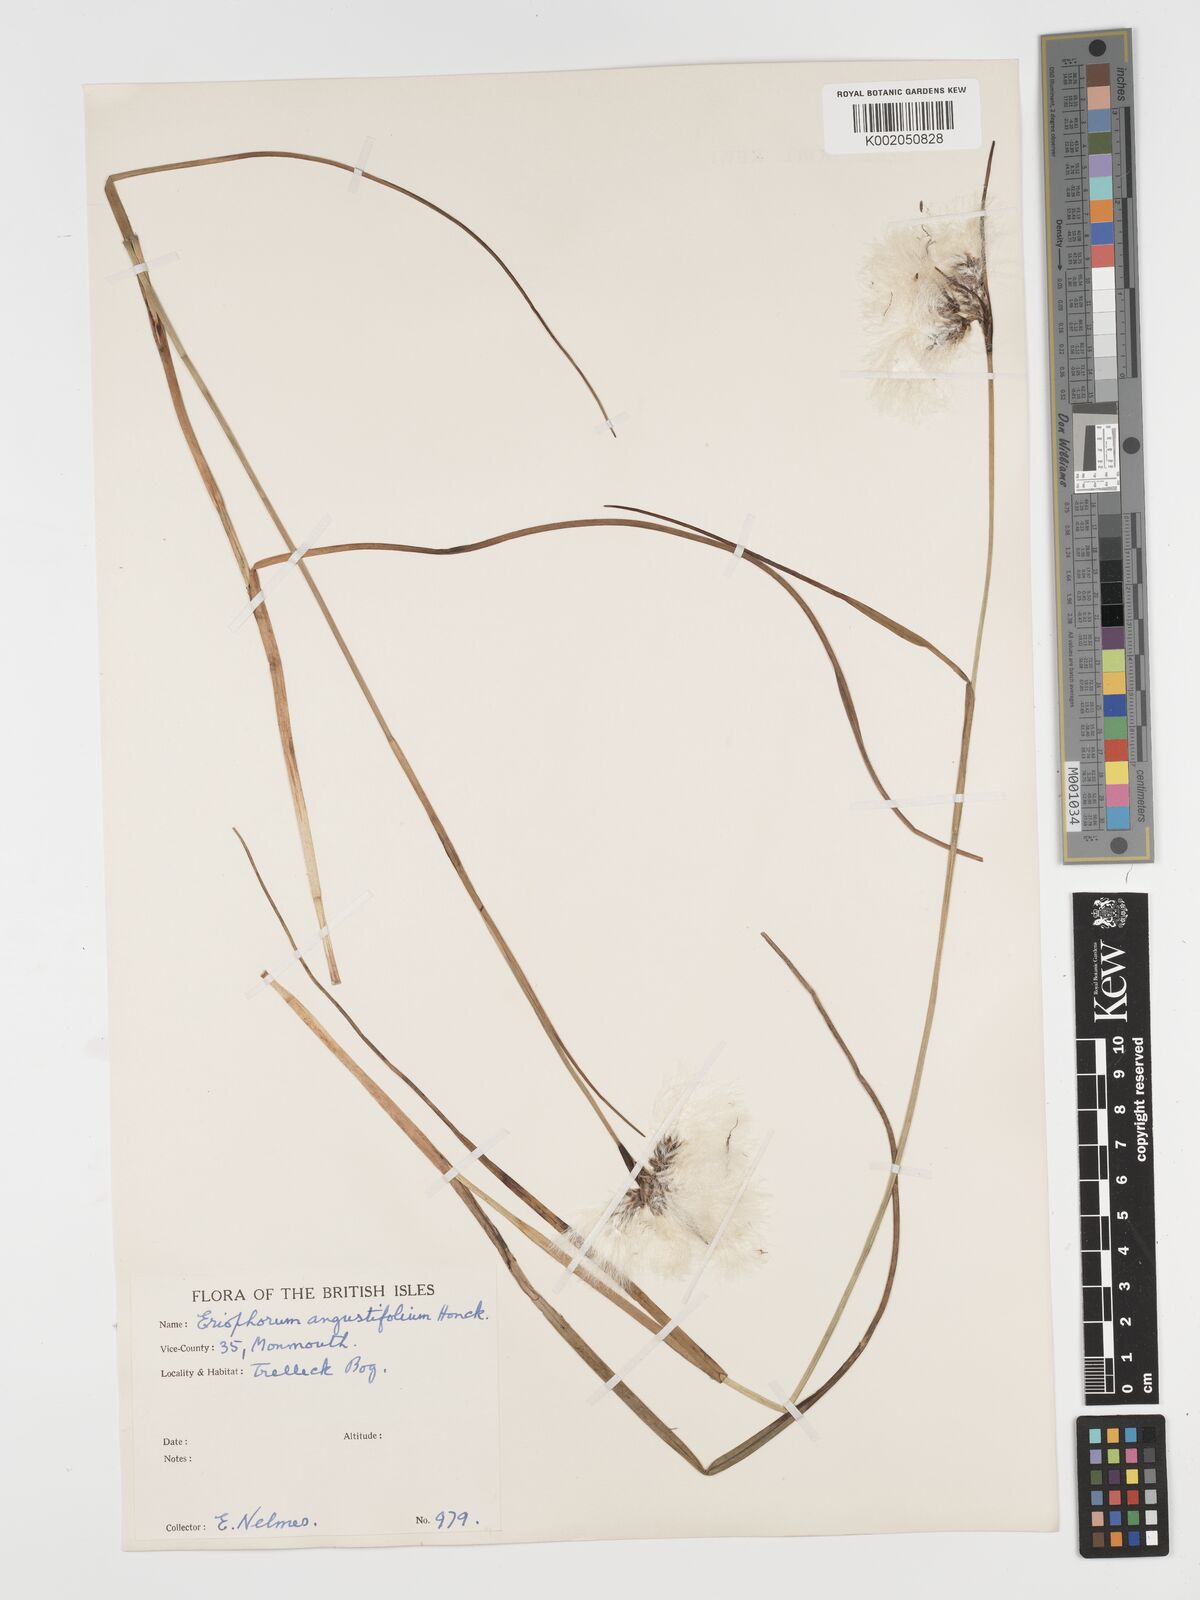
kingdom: Plantae
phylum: Tracheophyta
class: Liliopsida
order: Poales
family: Cyperaceae
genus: Eriophorum
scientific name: Eriophorum angustifolium
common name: Common cottongrass
